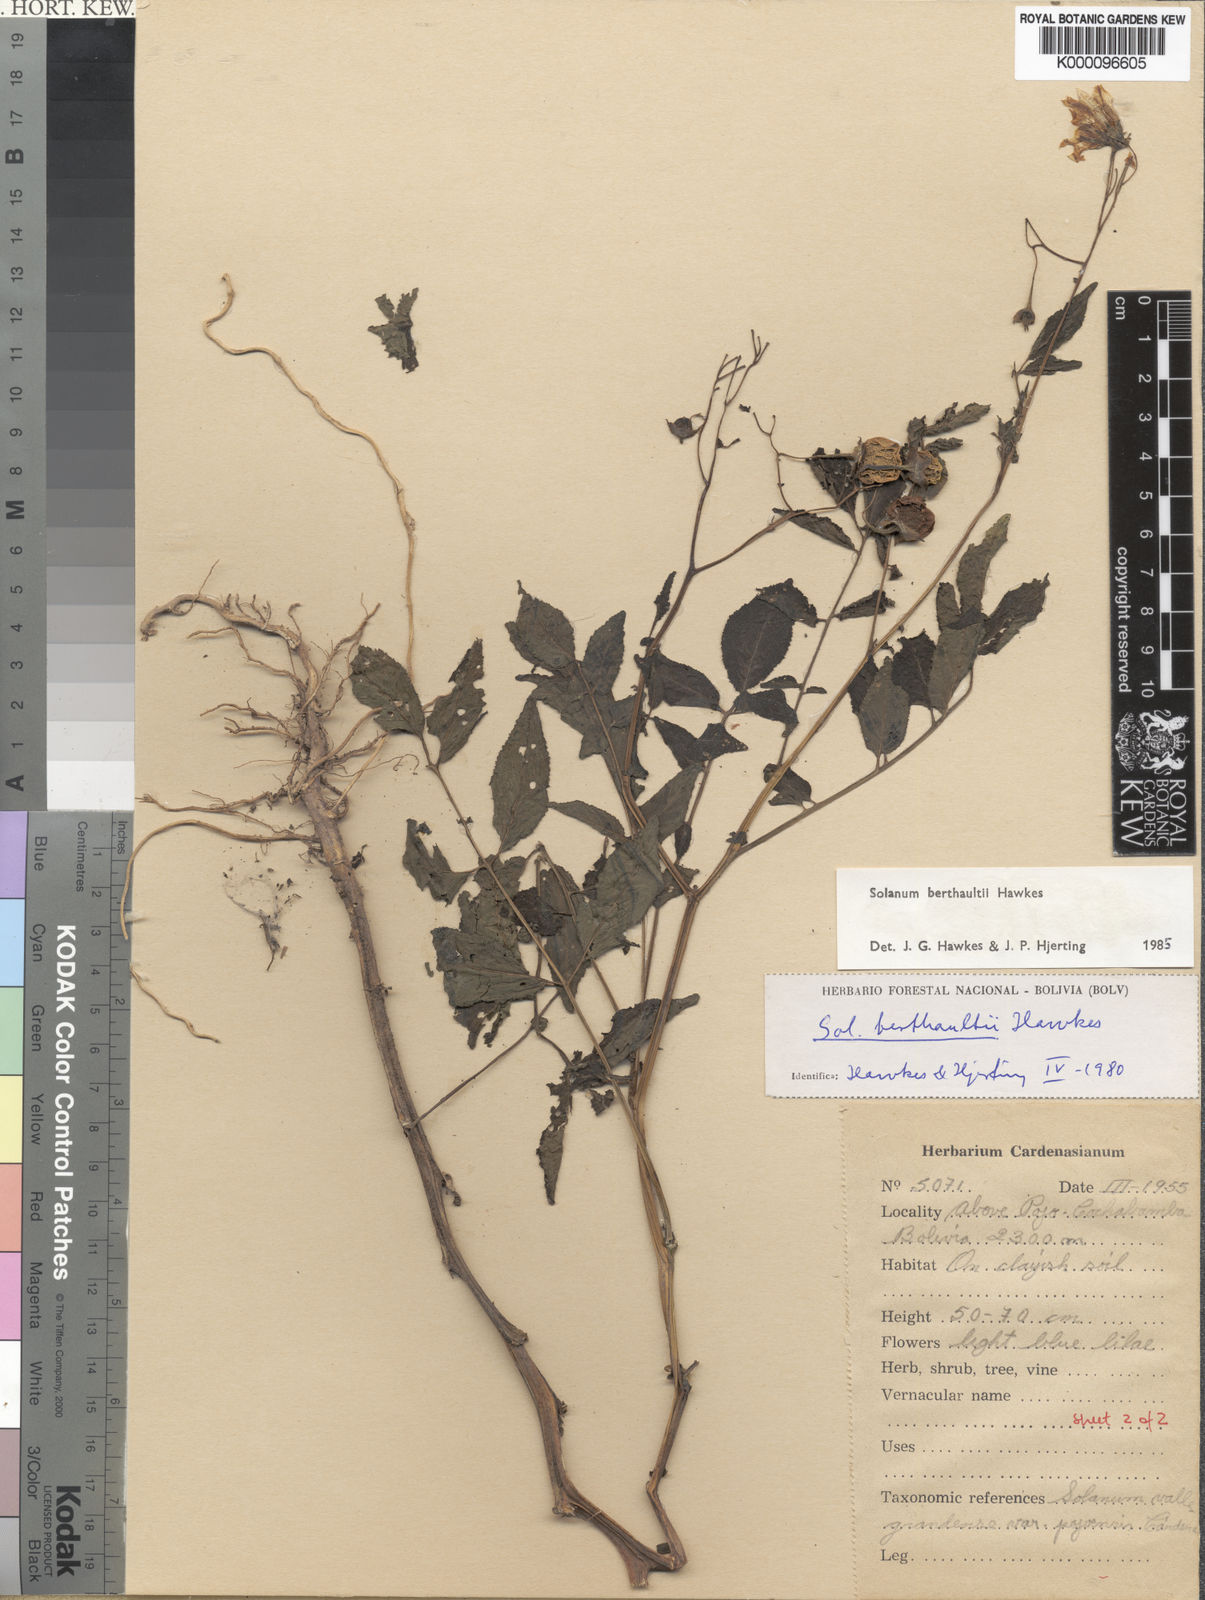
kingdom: Plantae
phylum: Tracheophyta
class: Magnoliopsida
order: Solanales
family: Solanaceae
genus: Solanum
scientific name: Solanum berthaultii
